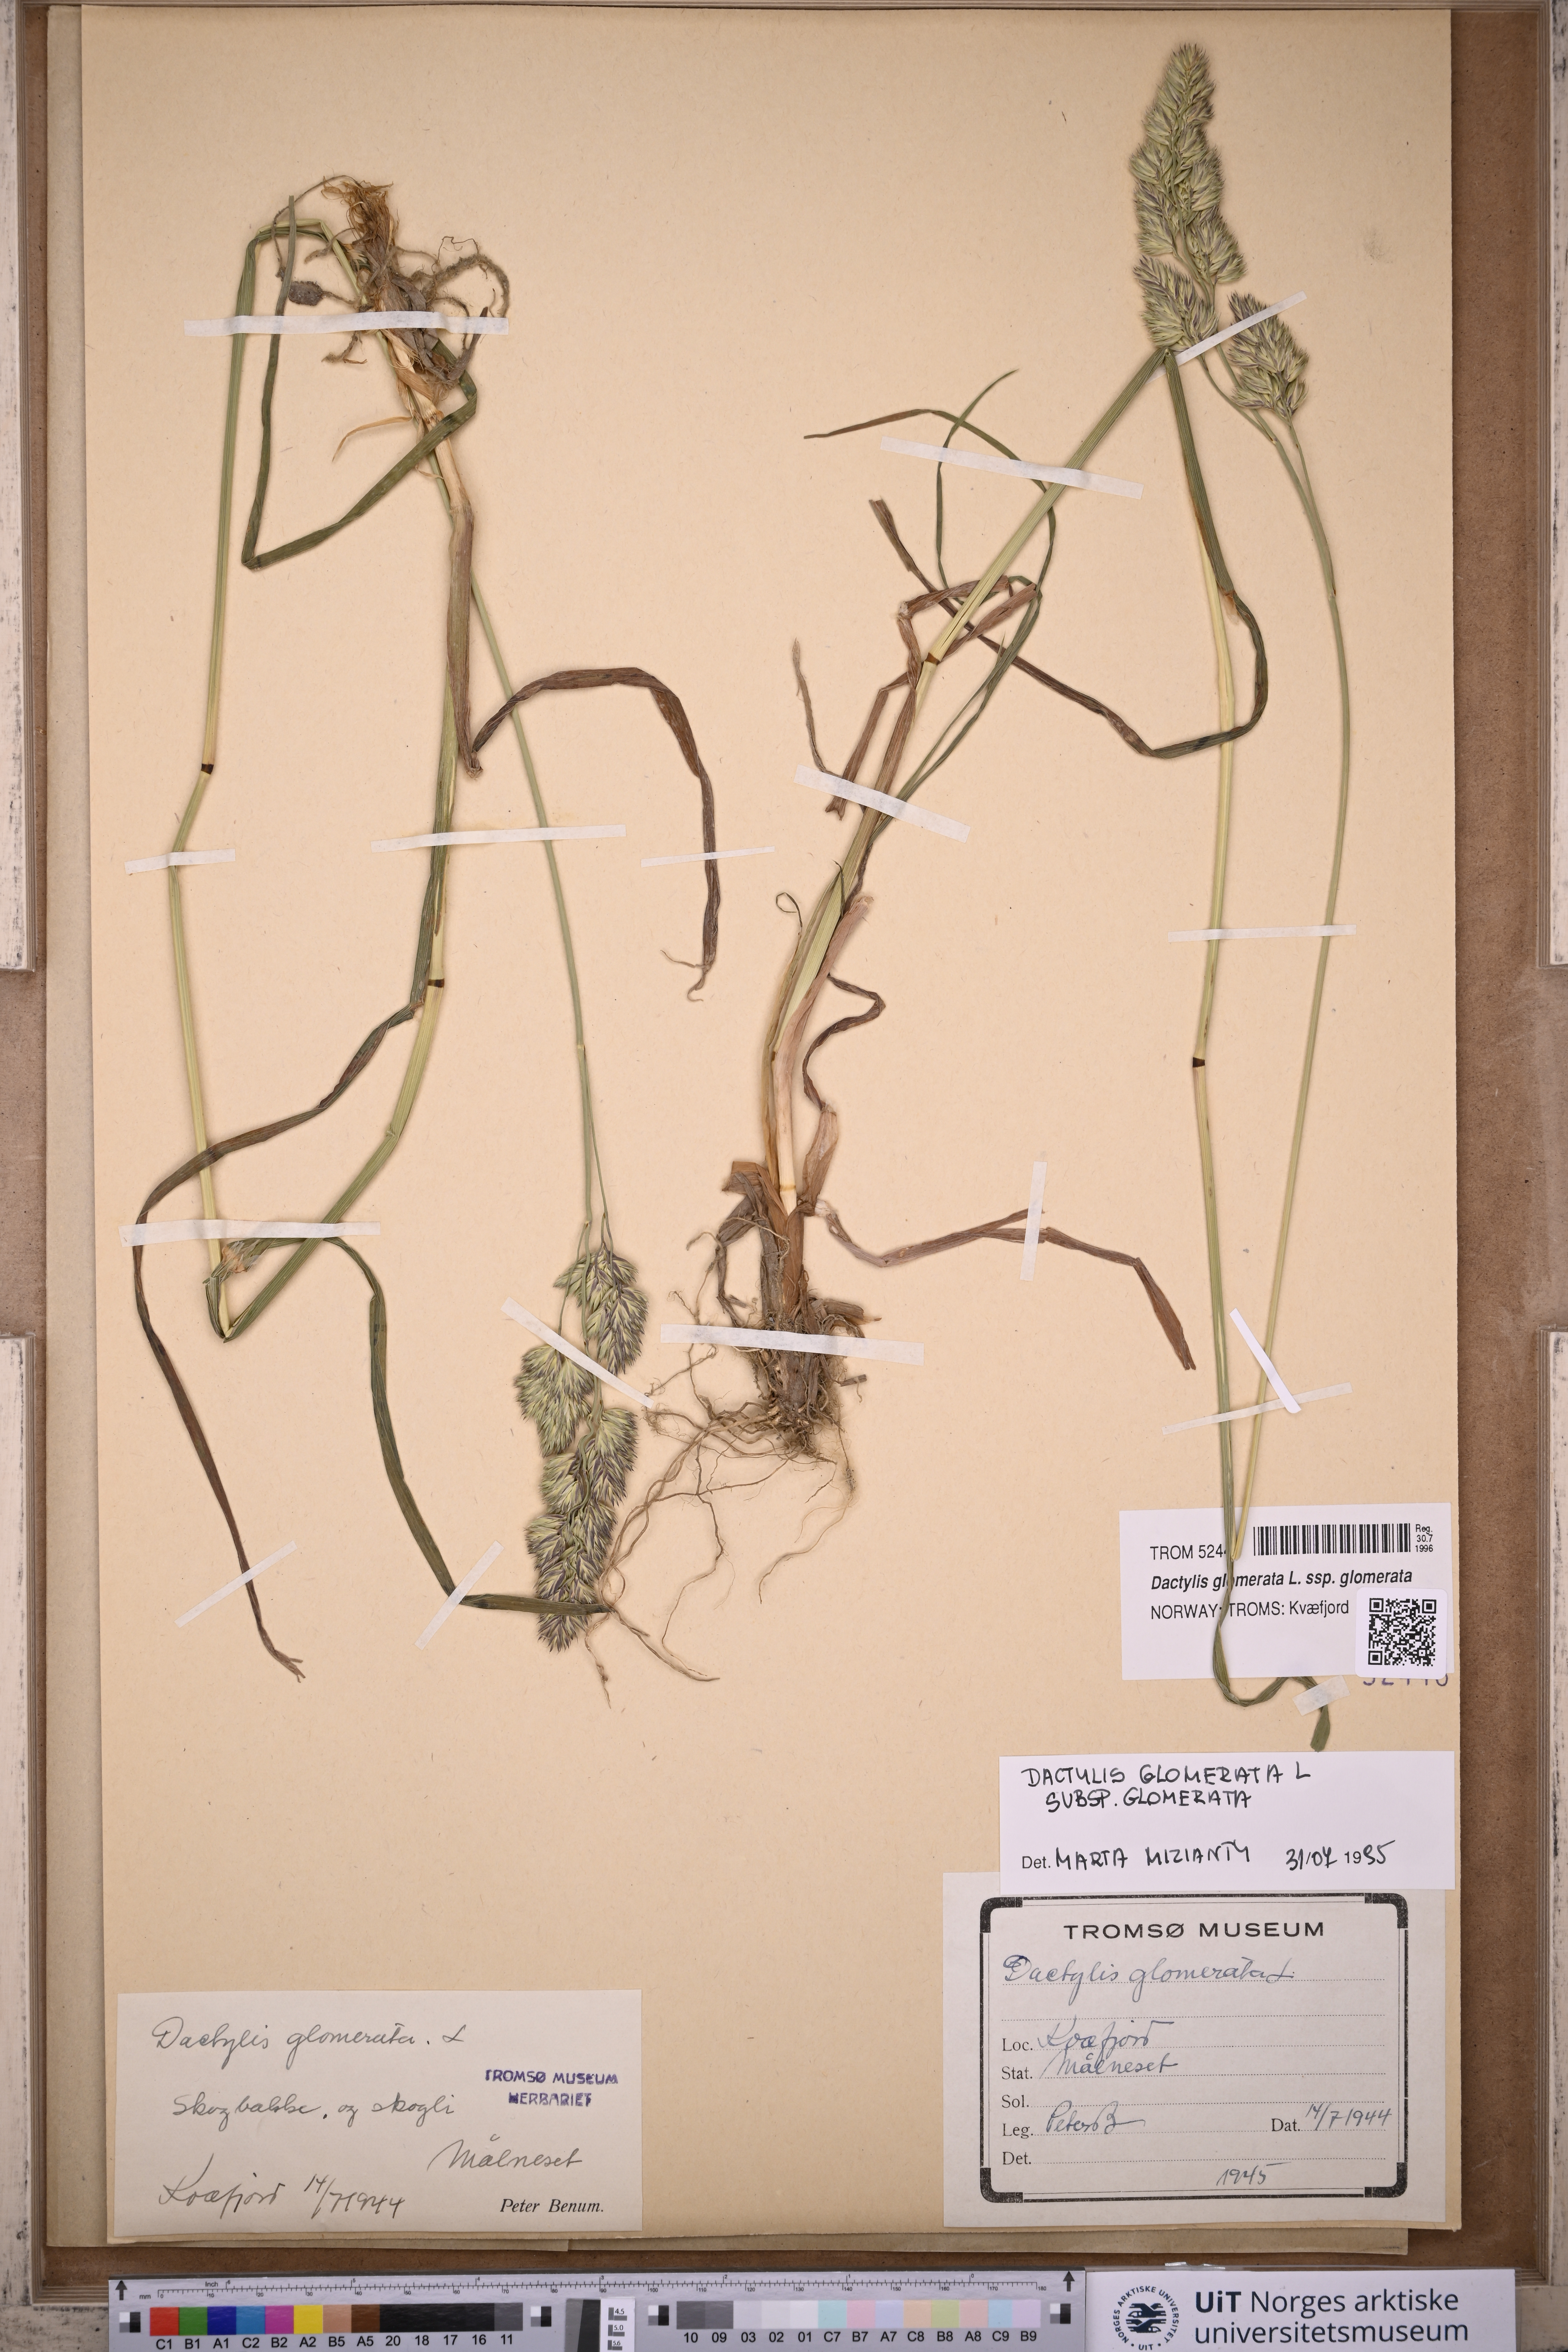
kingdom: Plantae
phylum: Tracheophyta
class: Liliopsida
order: Poales
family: Poaceae
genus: Dactylis
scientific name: Dactylis glomerata
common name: Orchardgrass
